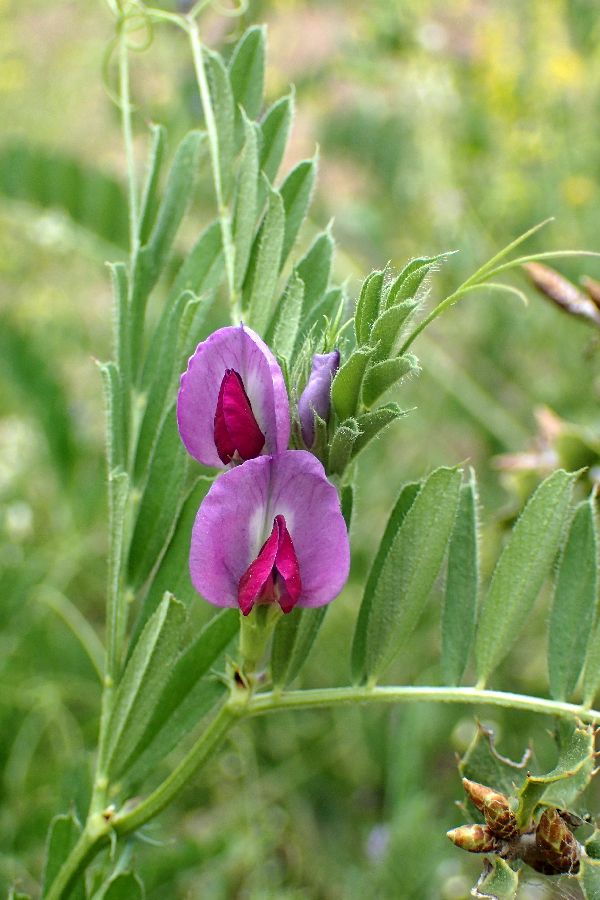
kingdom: Plantae
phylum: Tracheophyta
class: Magnoliopsida
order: Fabales
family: Fabaceae
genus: Vicia
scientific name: Vicia sativa
